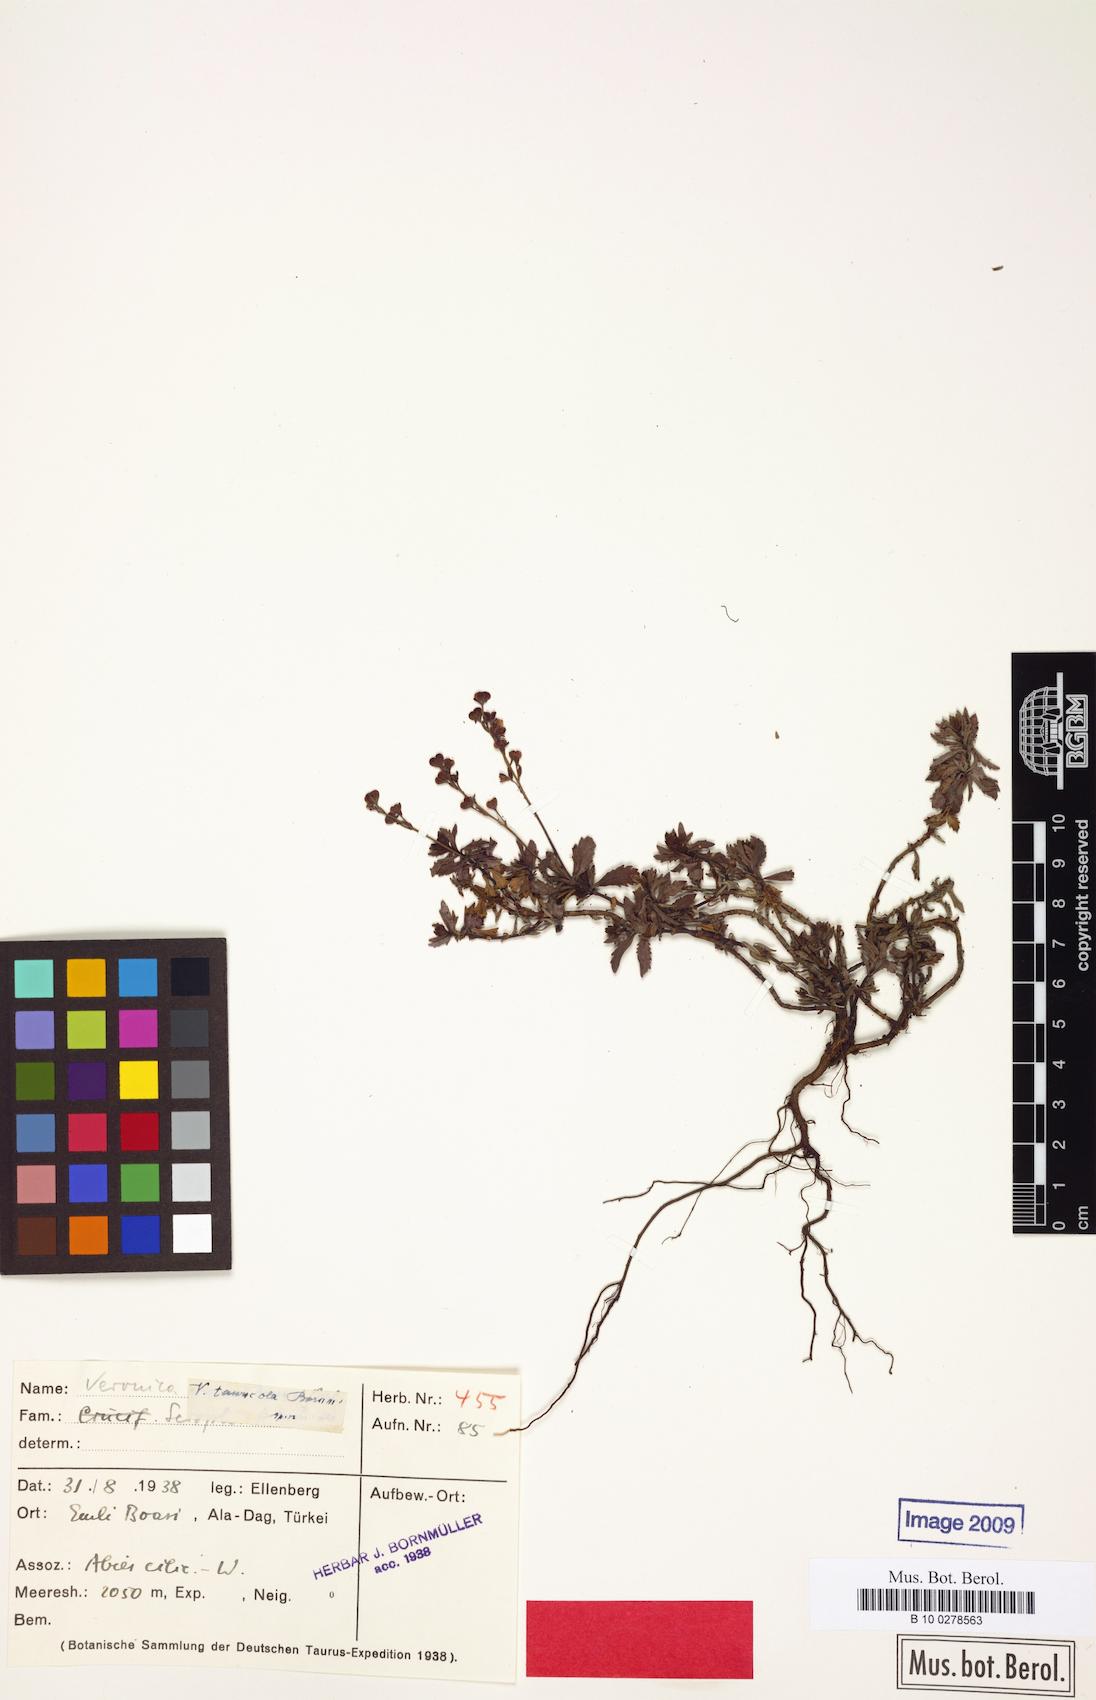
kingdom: Plantae
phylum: Tracheophyta
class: Magnoliopsida
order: Lamiales
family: Plantaginaceae
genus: Veronica
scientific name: Veronica tauricola
